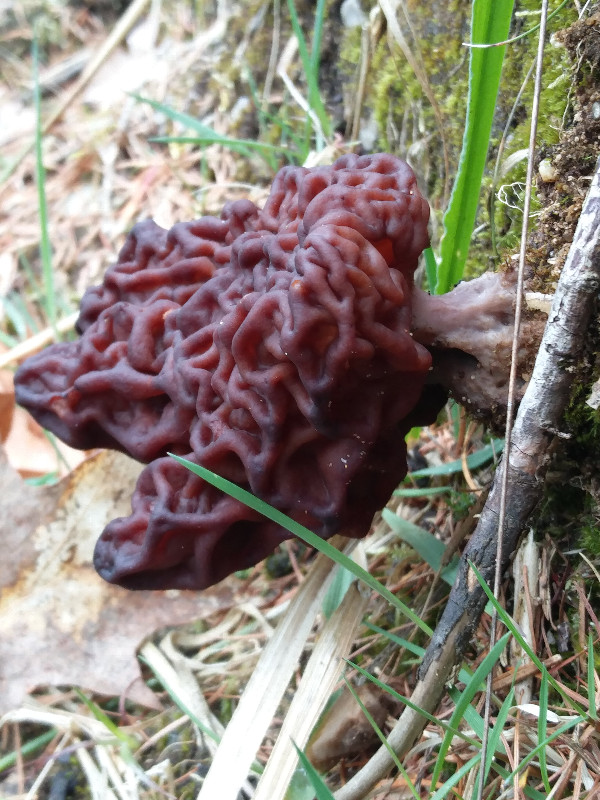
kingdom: Fungi
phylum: Ascomycota
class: Pezizomycetes
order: Pezizales
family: Discinaceae
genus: Gyromitra
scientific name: Gyromitra esculenta
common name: ægte stenmorkel
